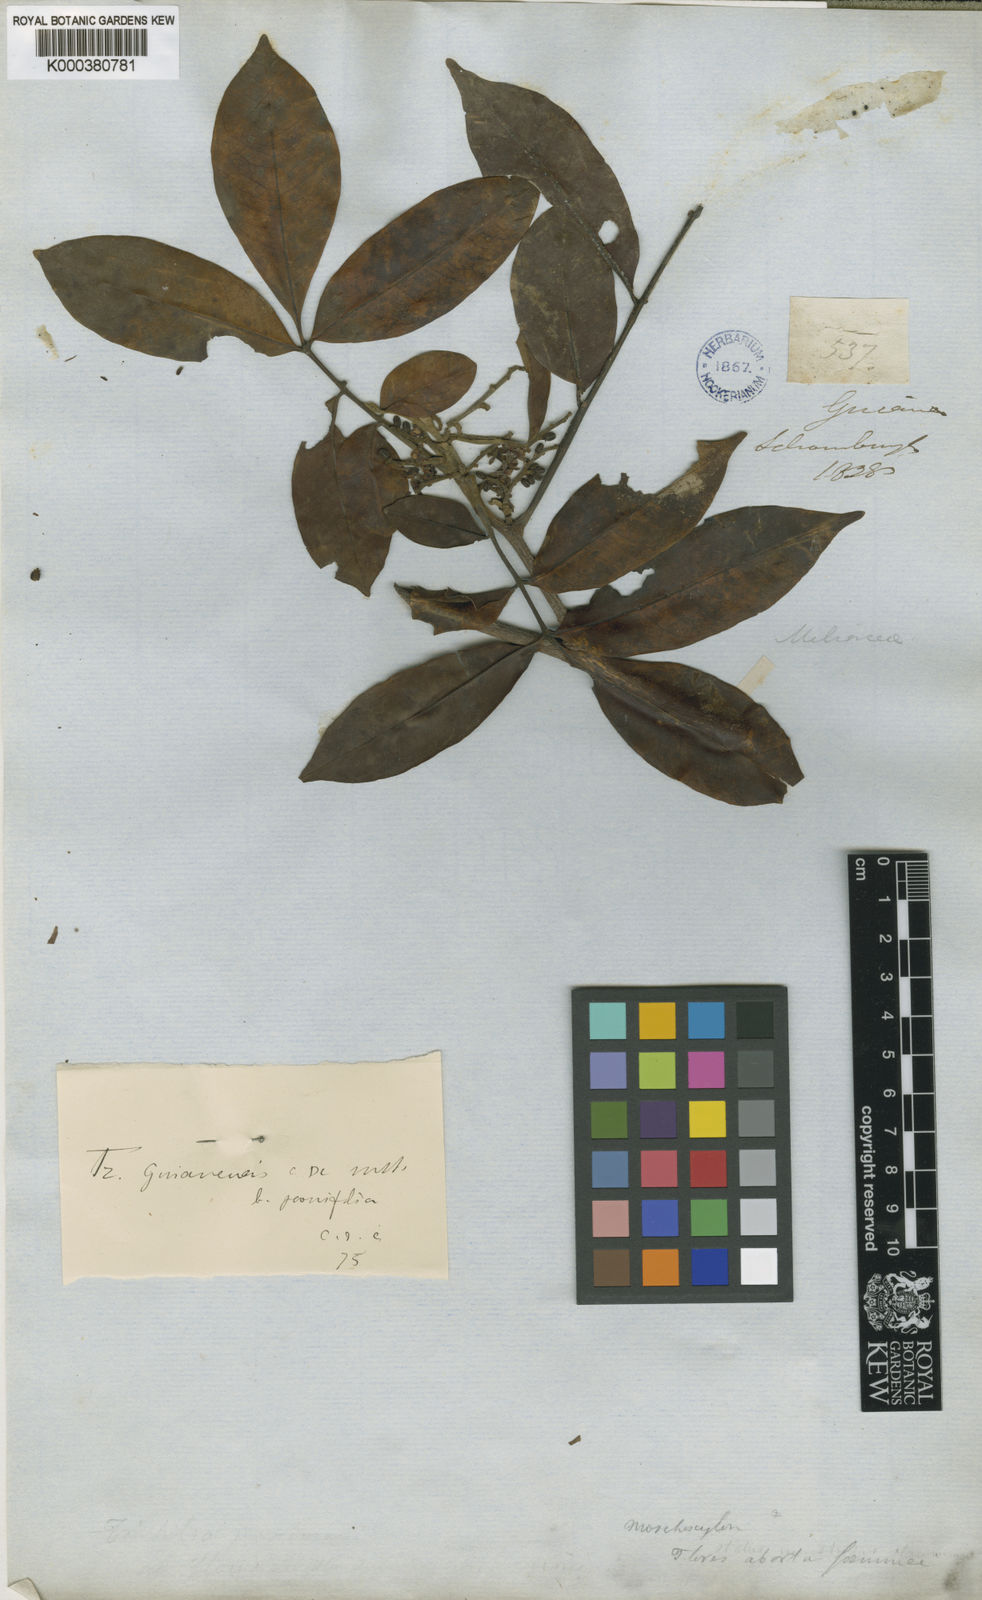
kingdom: Plantae
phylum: Tracheophyta
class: Magnoliopsida
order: Sapindales
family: Meliaceae
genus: Trichilia
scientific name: Trichilia rubra
